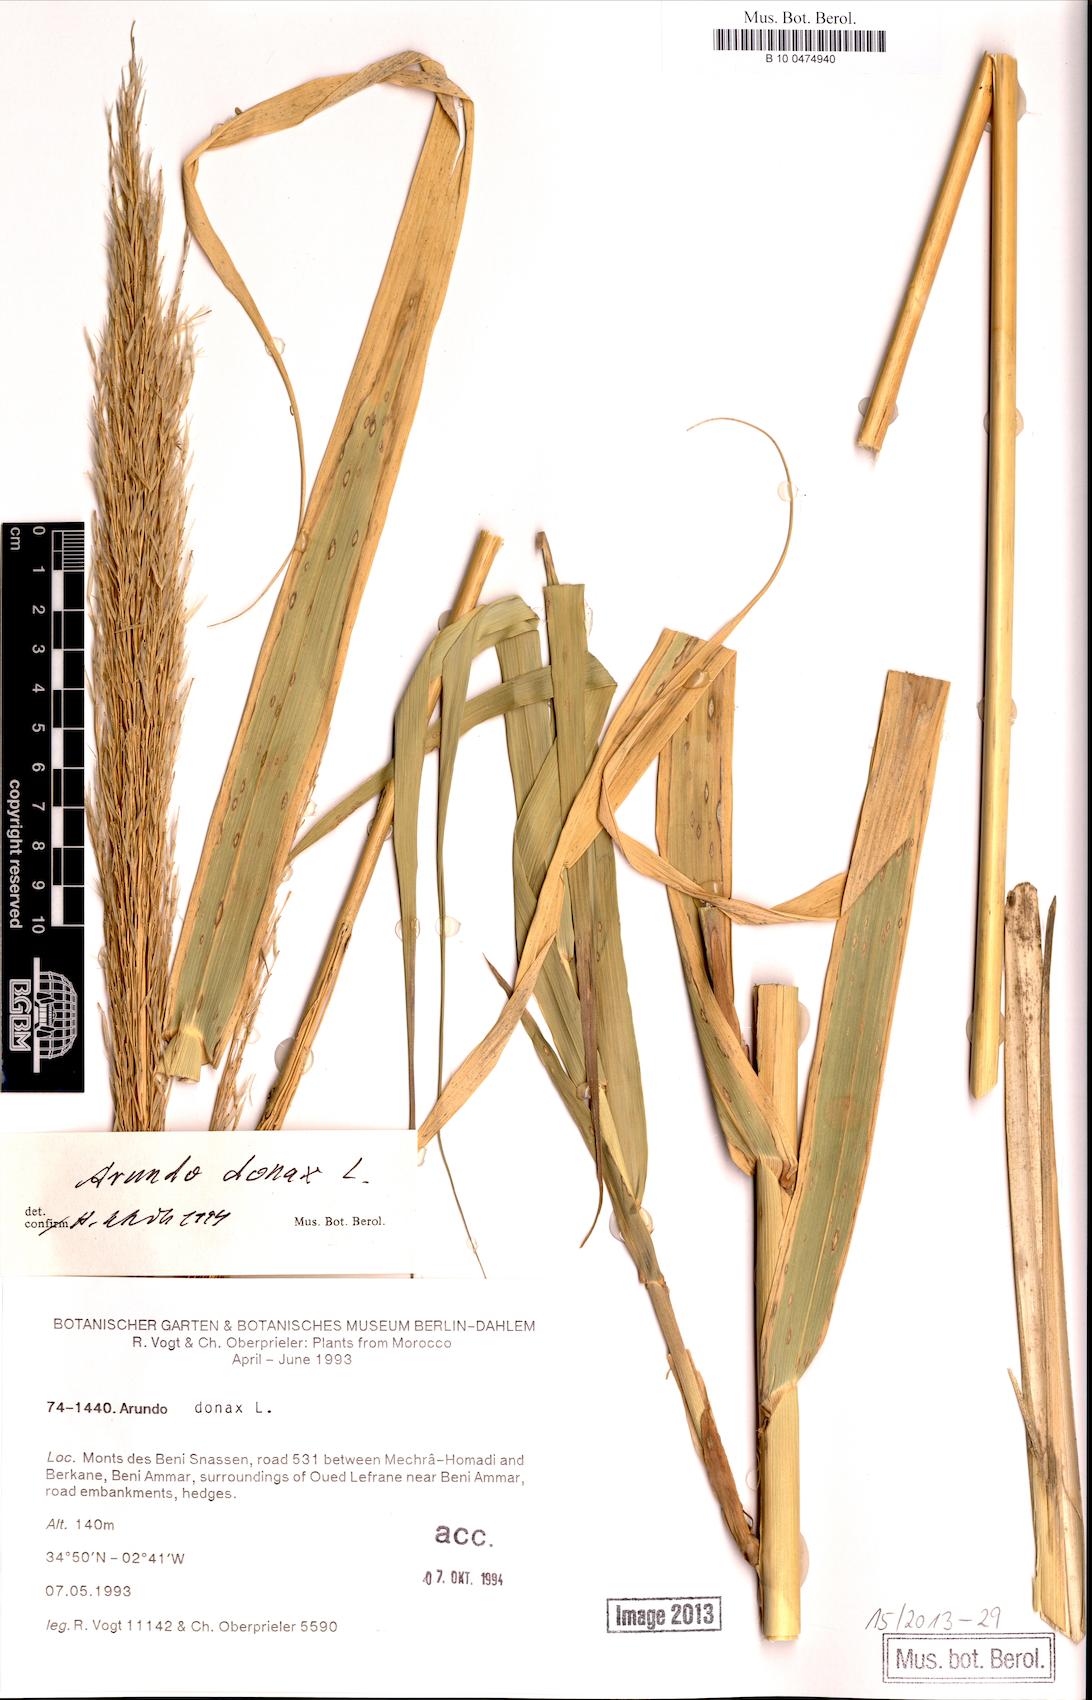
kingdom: Plantae
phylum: Tracheophyta
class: Liliopsida
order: Poales
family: Poaceae
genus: Arundo
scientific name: Arundo donax
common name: Giant reed
